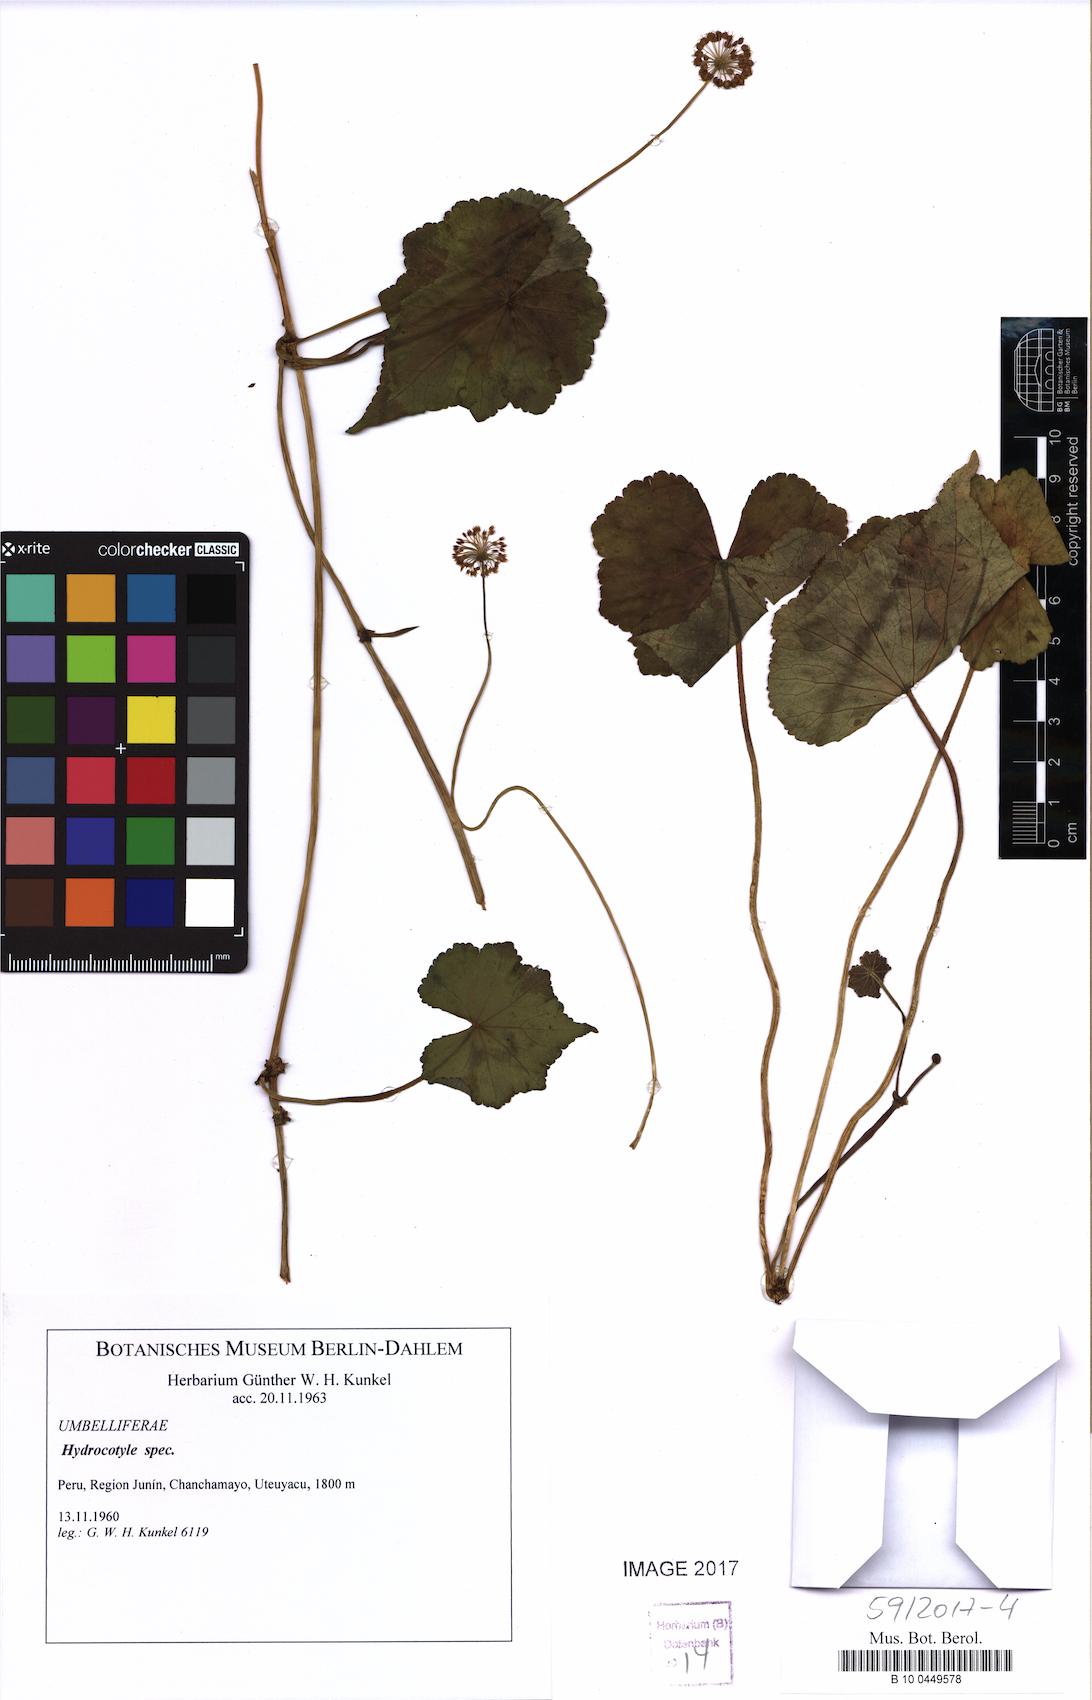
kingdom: Plantae
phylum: Tracheophyta
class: Magnoliopsida
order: Apiales
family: Araliaceae
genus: Hydrocotyle
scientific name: Hydrocotyle
